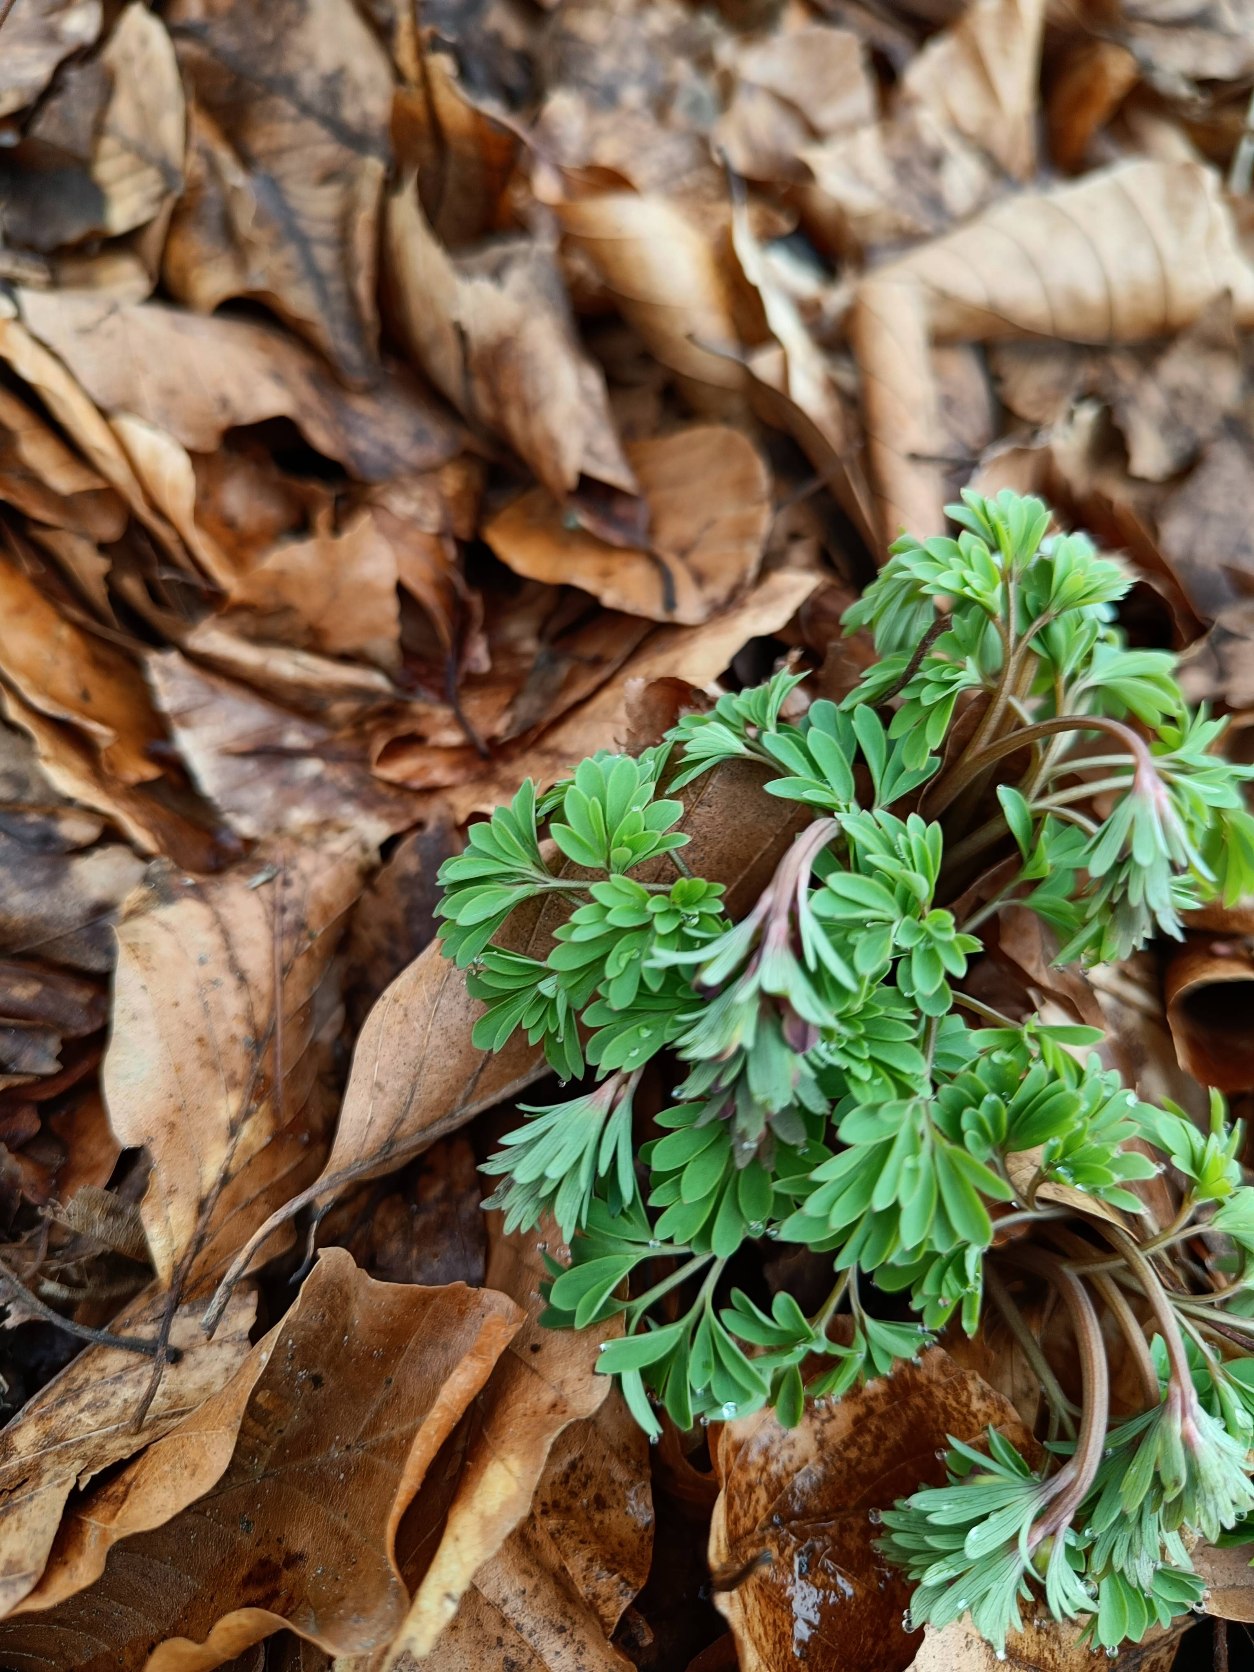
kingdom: Plantae
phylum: Tracheophyta
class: Magnoliopsida
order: Ranunculales
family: Papaveraceae
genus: Corydalis
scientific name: Corydalis solida
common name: Langstilket lærkespore
